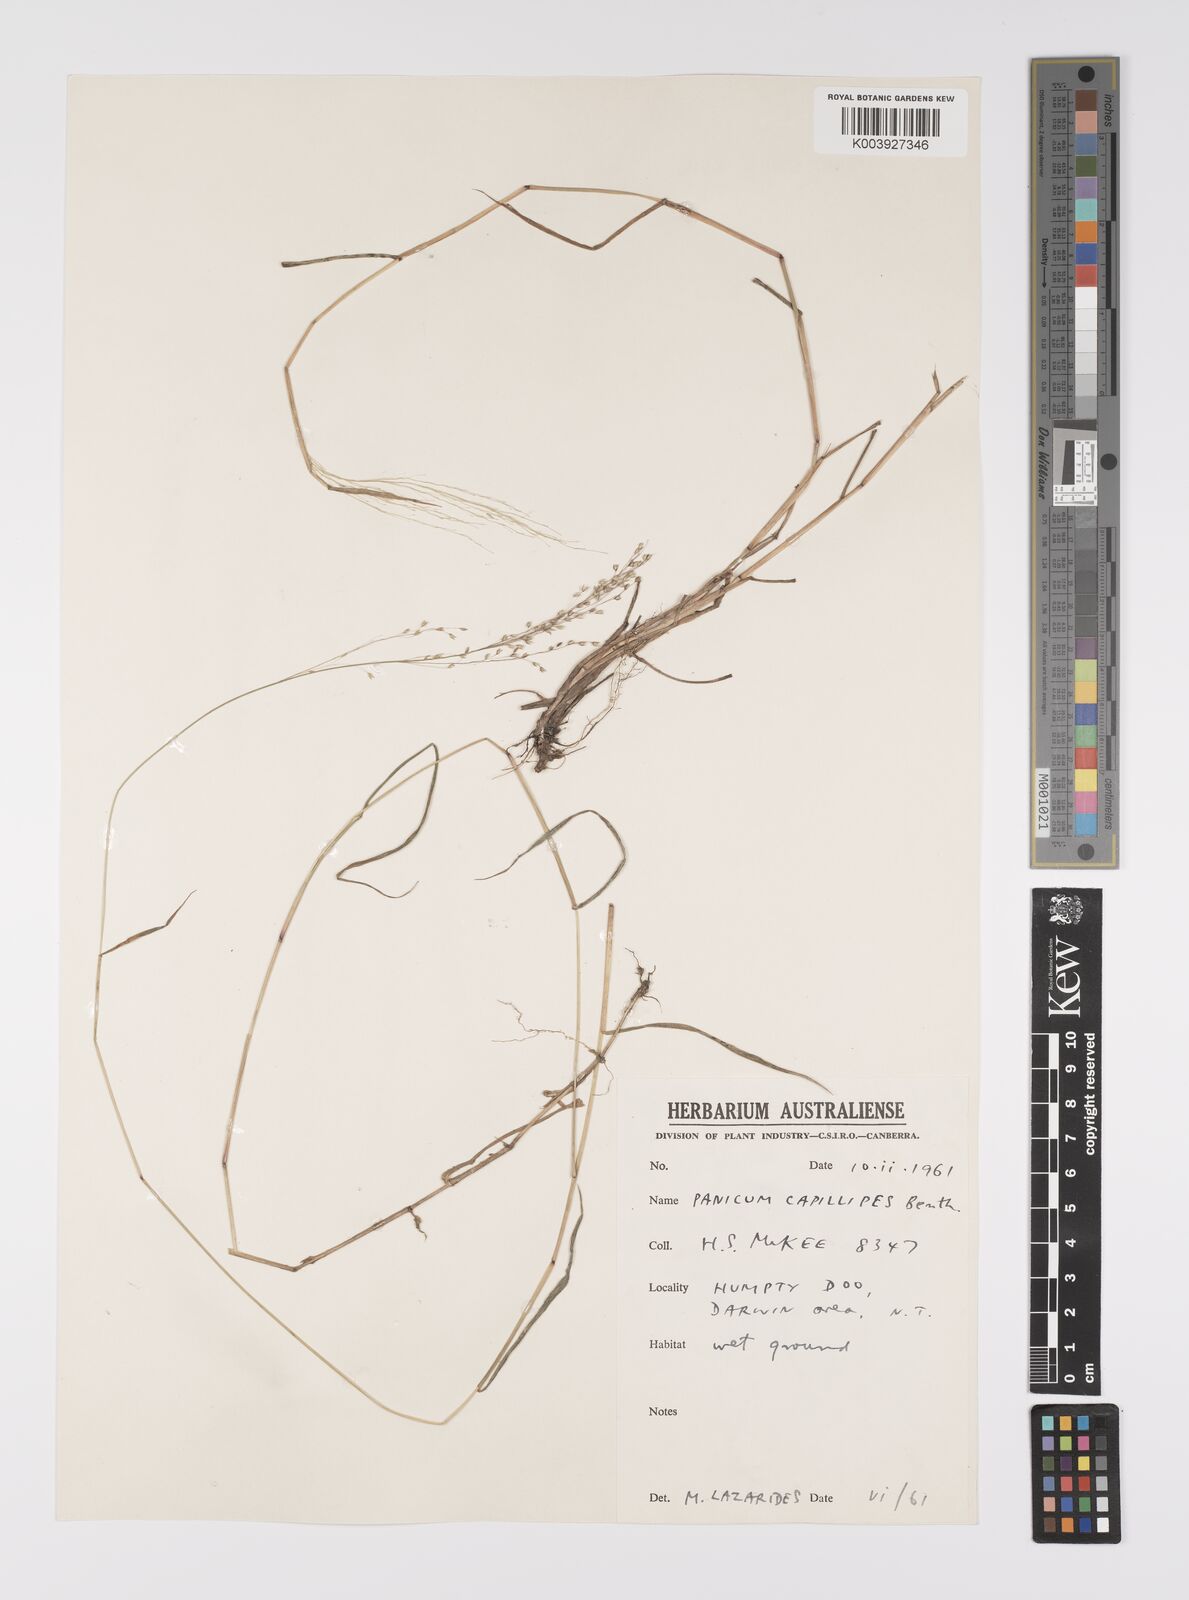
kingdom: Plantae
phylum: Tracheophyta
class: Liliopsida
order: Poales
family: Poaceae
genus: Whiteochloa
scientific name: Whiteochloa capillipes
